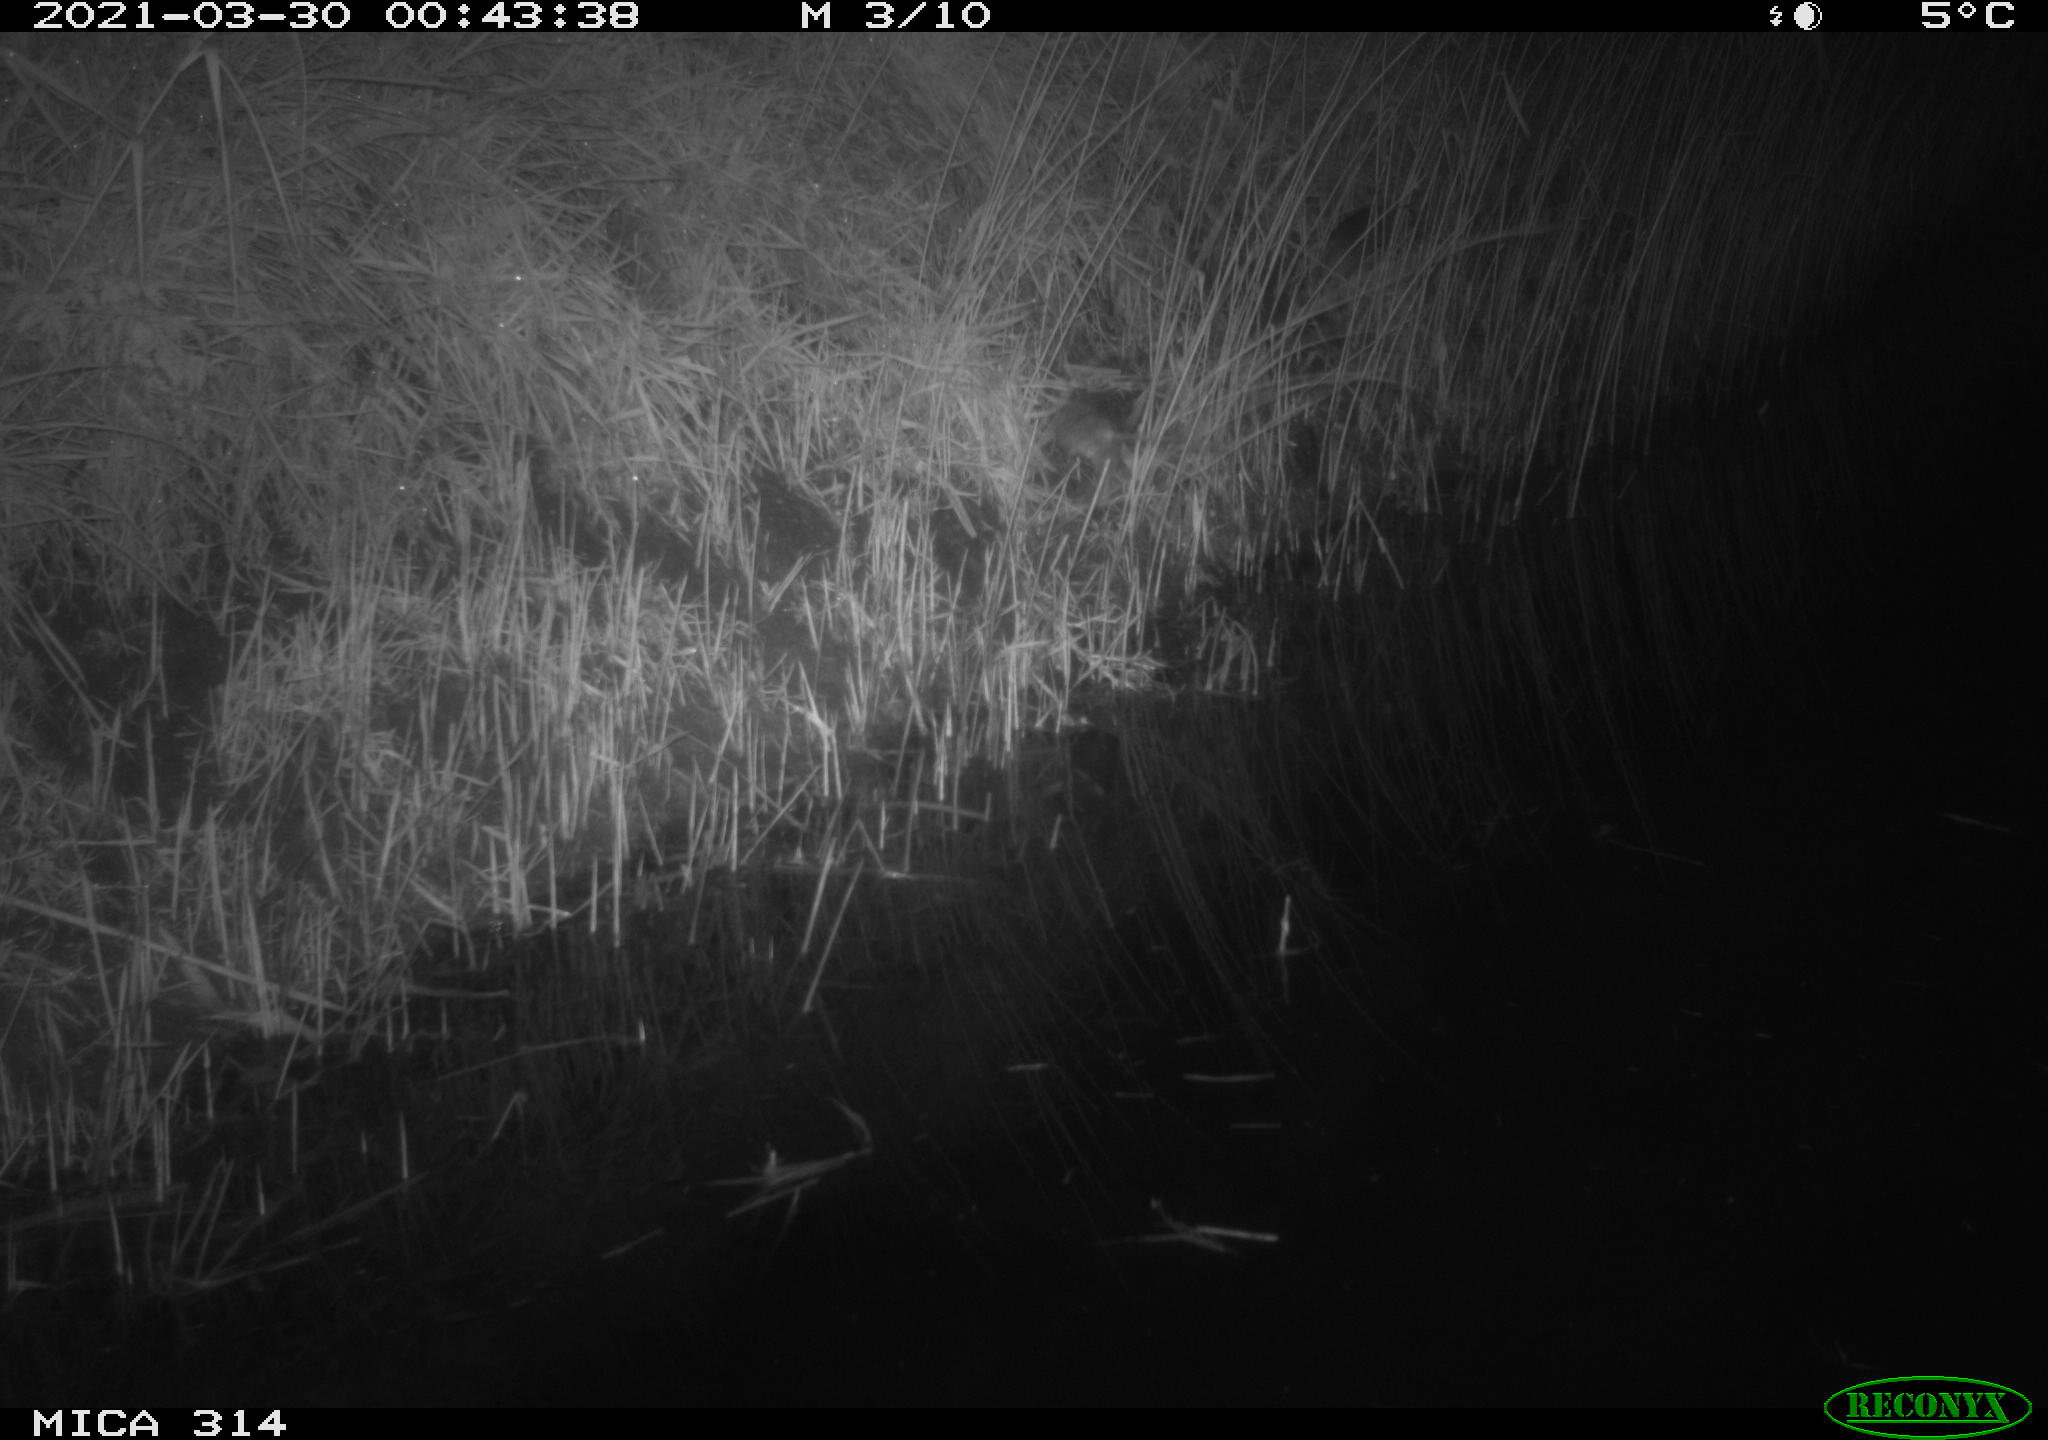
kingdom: Animalia
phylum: Chordata
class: Mammalia
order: Rodentia
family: Muridae
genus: Rattus
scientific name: Rattus norvegicus
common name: Brown rat
